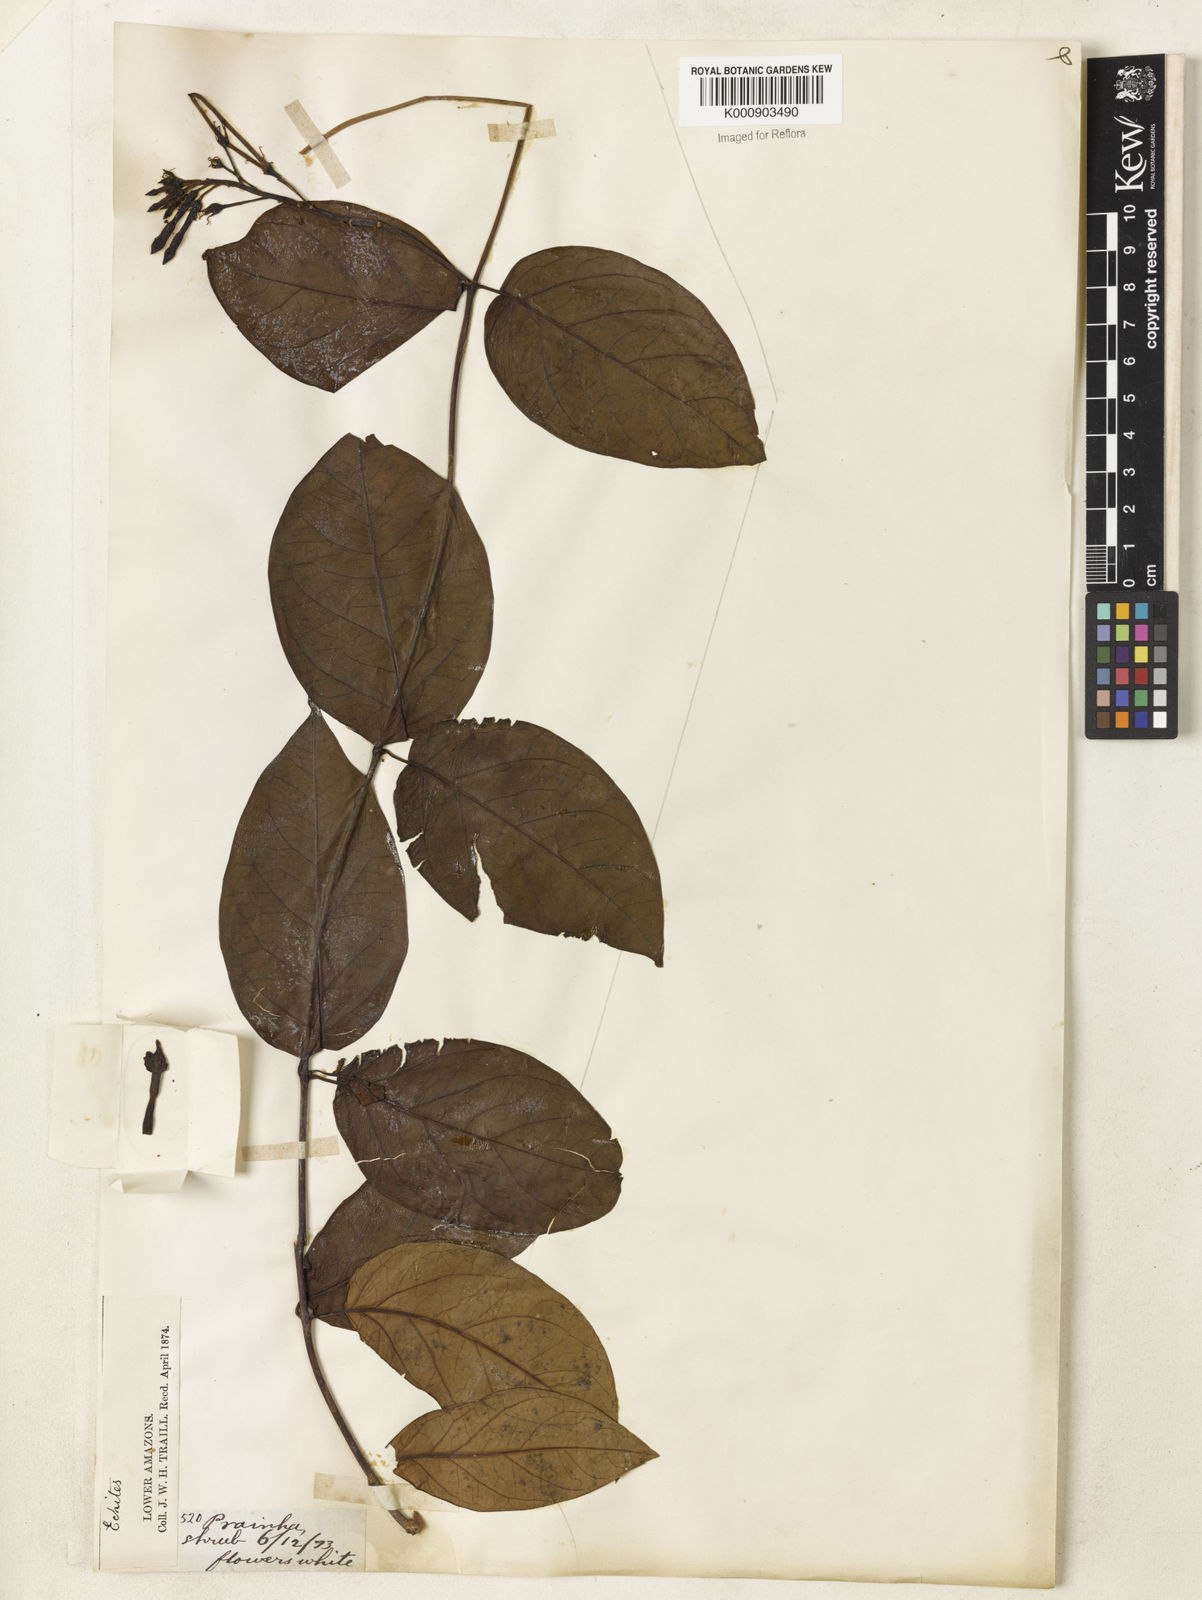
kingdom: Plantae
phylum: Tracheophyta
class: Magnoliopsida
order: Gentianales
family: Apocynaceae
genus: Prestonia
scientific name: Prestonia
